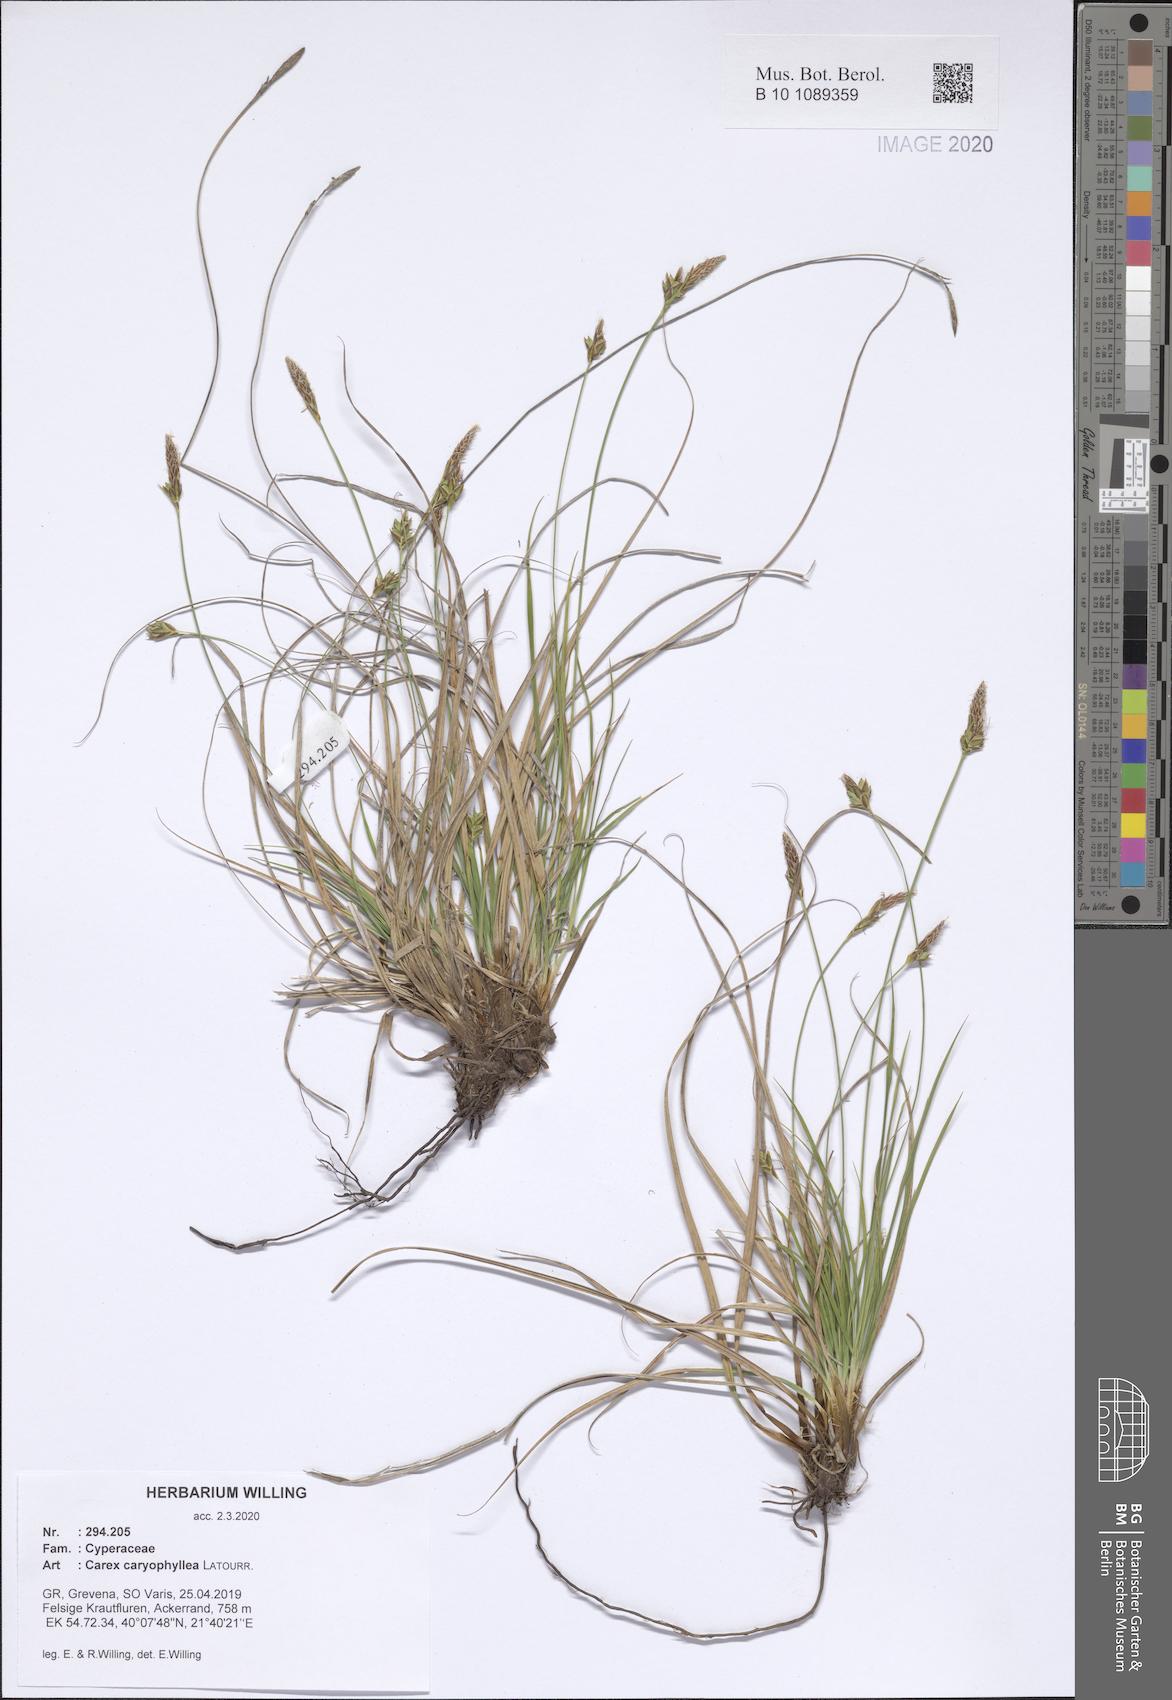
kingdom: Plantae
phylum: Tracheophyta
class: Liliopsida
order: Poales
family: Cyperaceae
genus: Carex
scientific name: Carex halleriana
